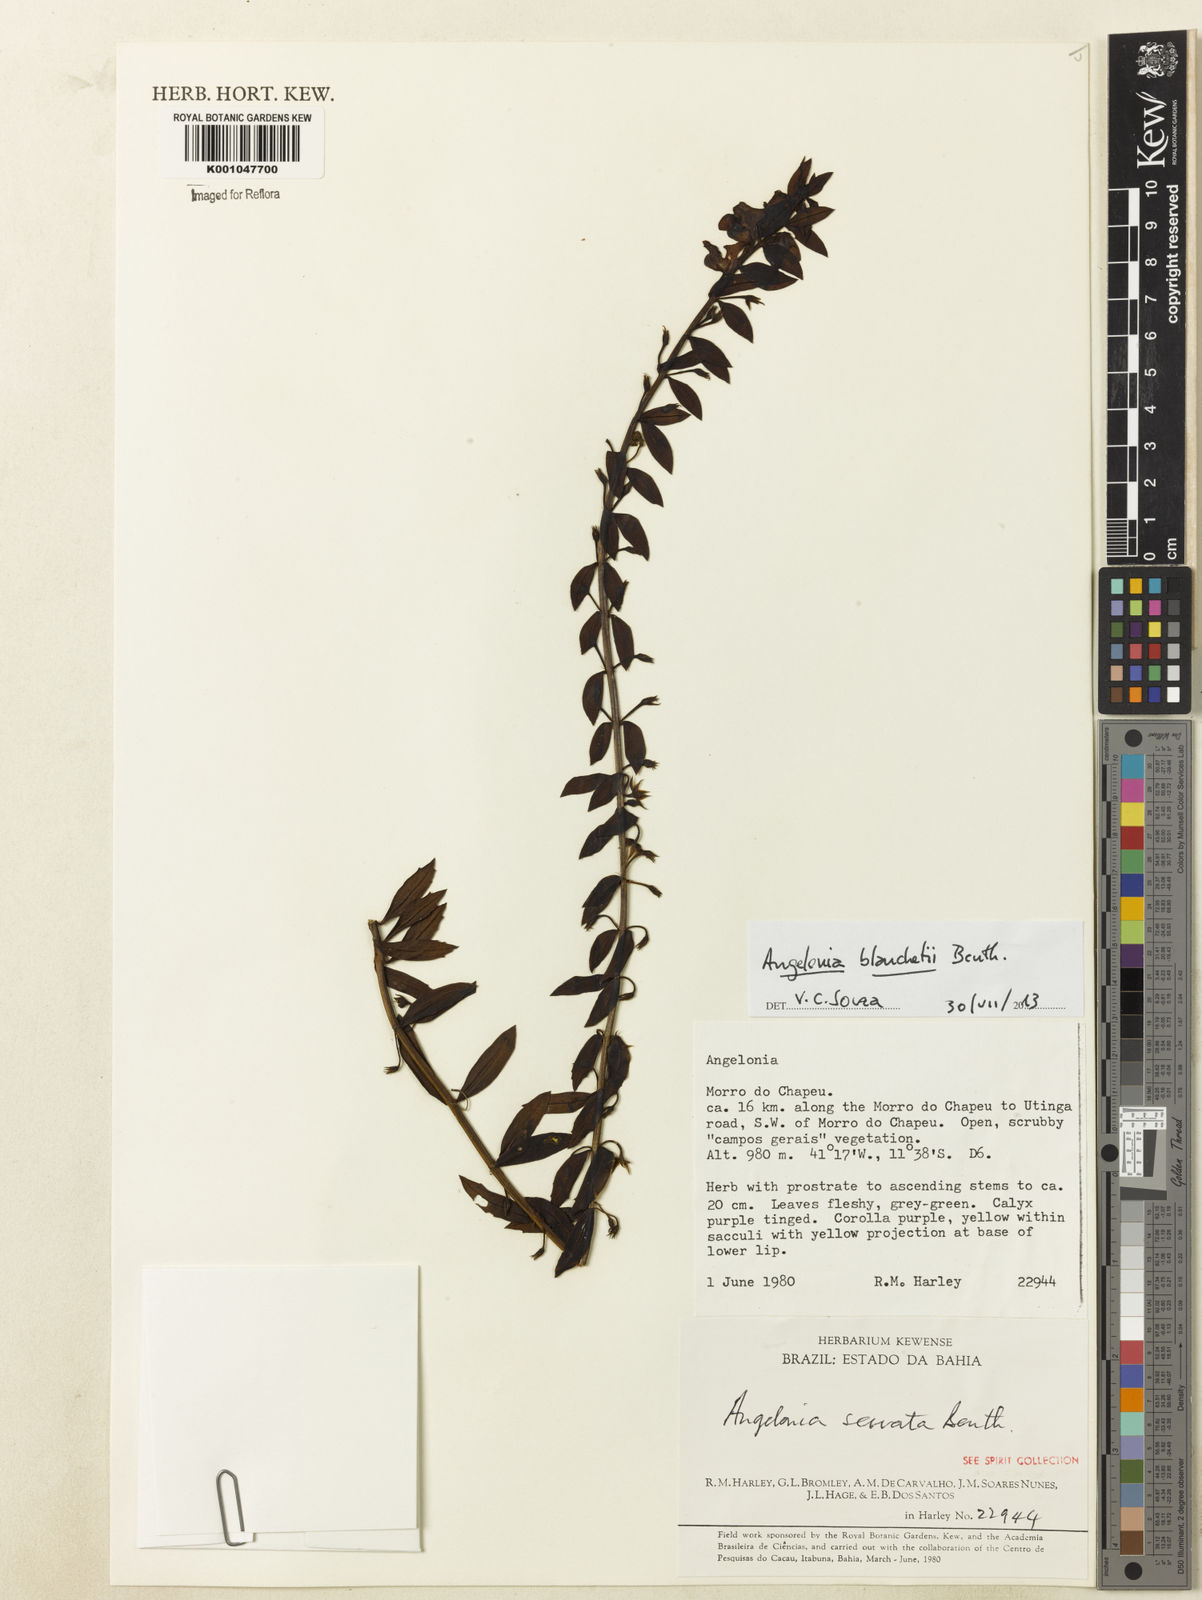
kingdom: Plantae
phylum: Tracheophyta
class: Magnoliopsida
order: Lamiales
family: Plantaginaceae
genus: Angelonia
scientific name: Angelonia blanchetii
